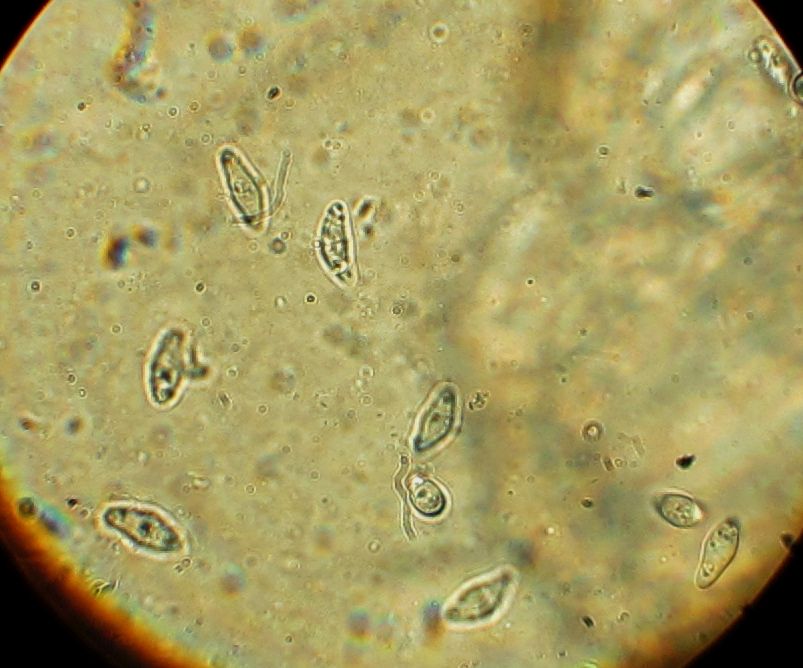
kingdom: Fungi
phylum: Ascomycota
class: Dothideomycetes
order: Dothideales
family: Dothideaceae
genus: Scirrhia
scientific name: Scirrhia aspidiorum
